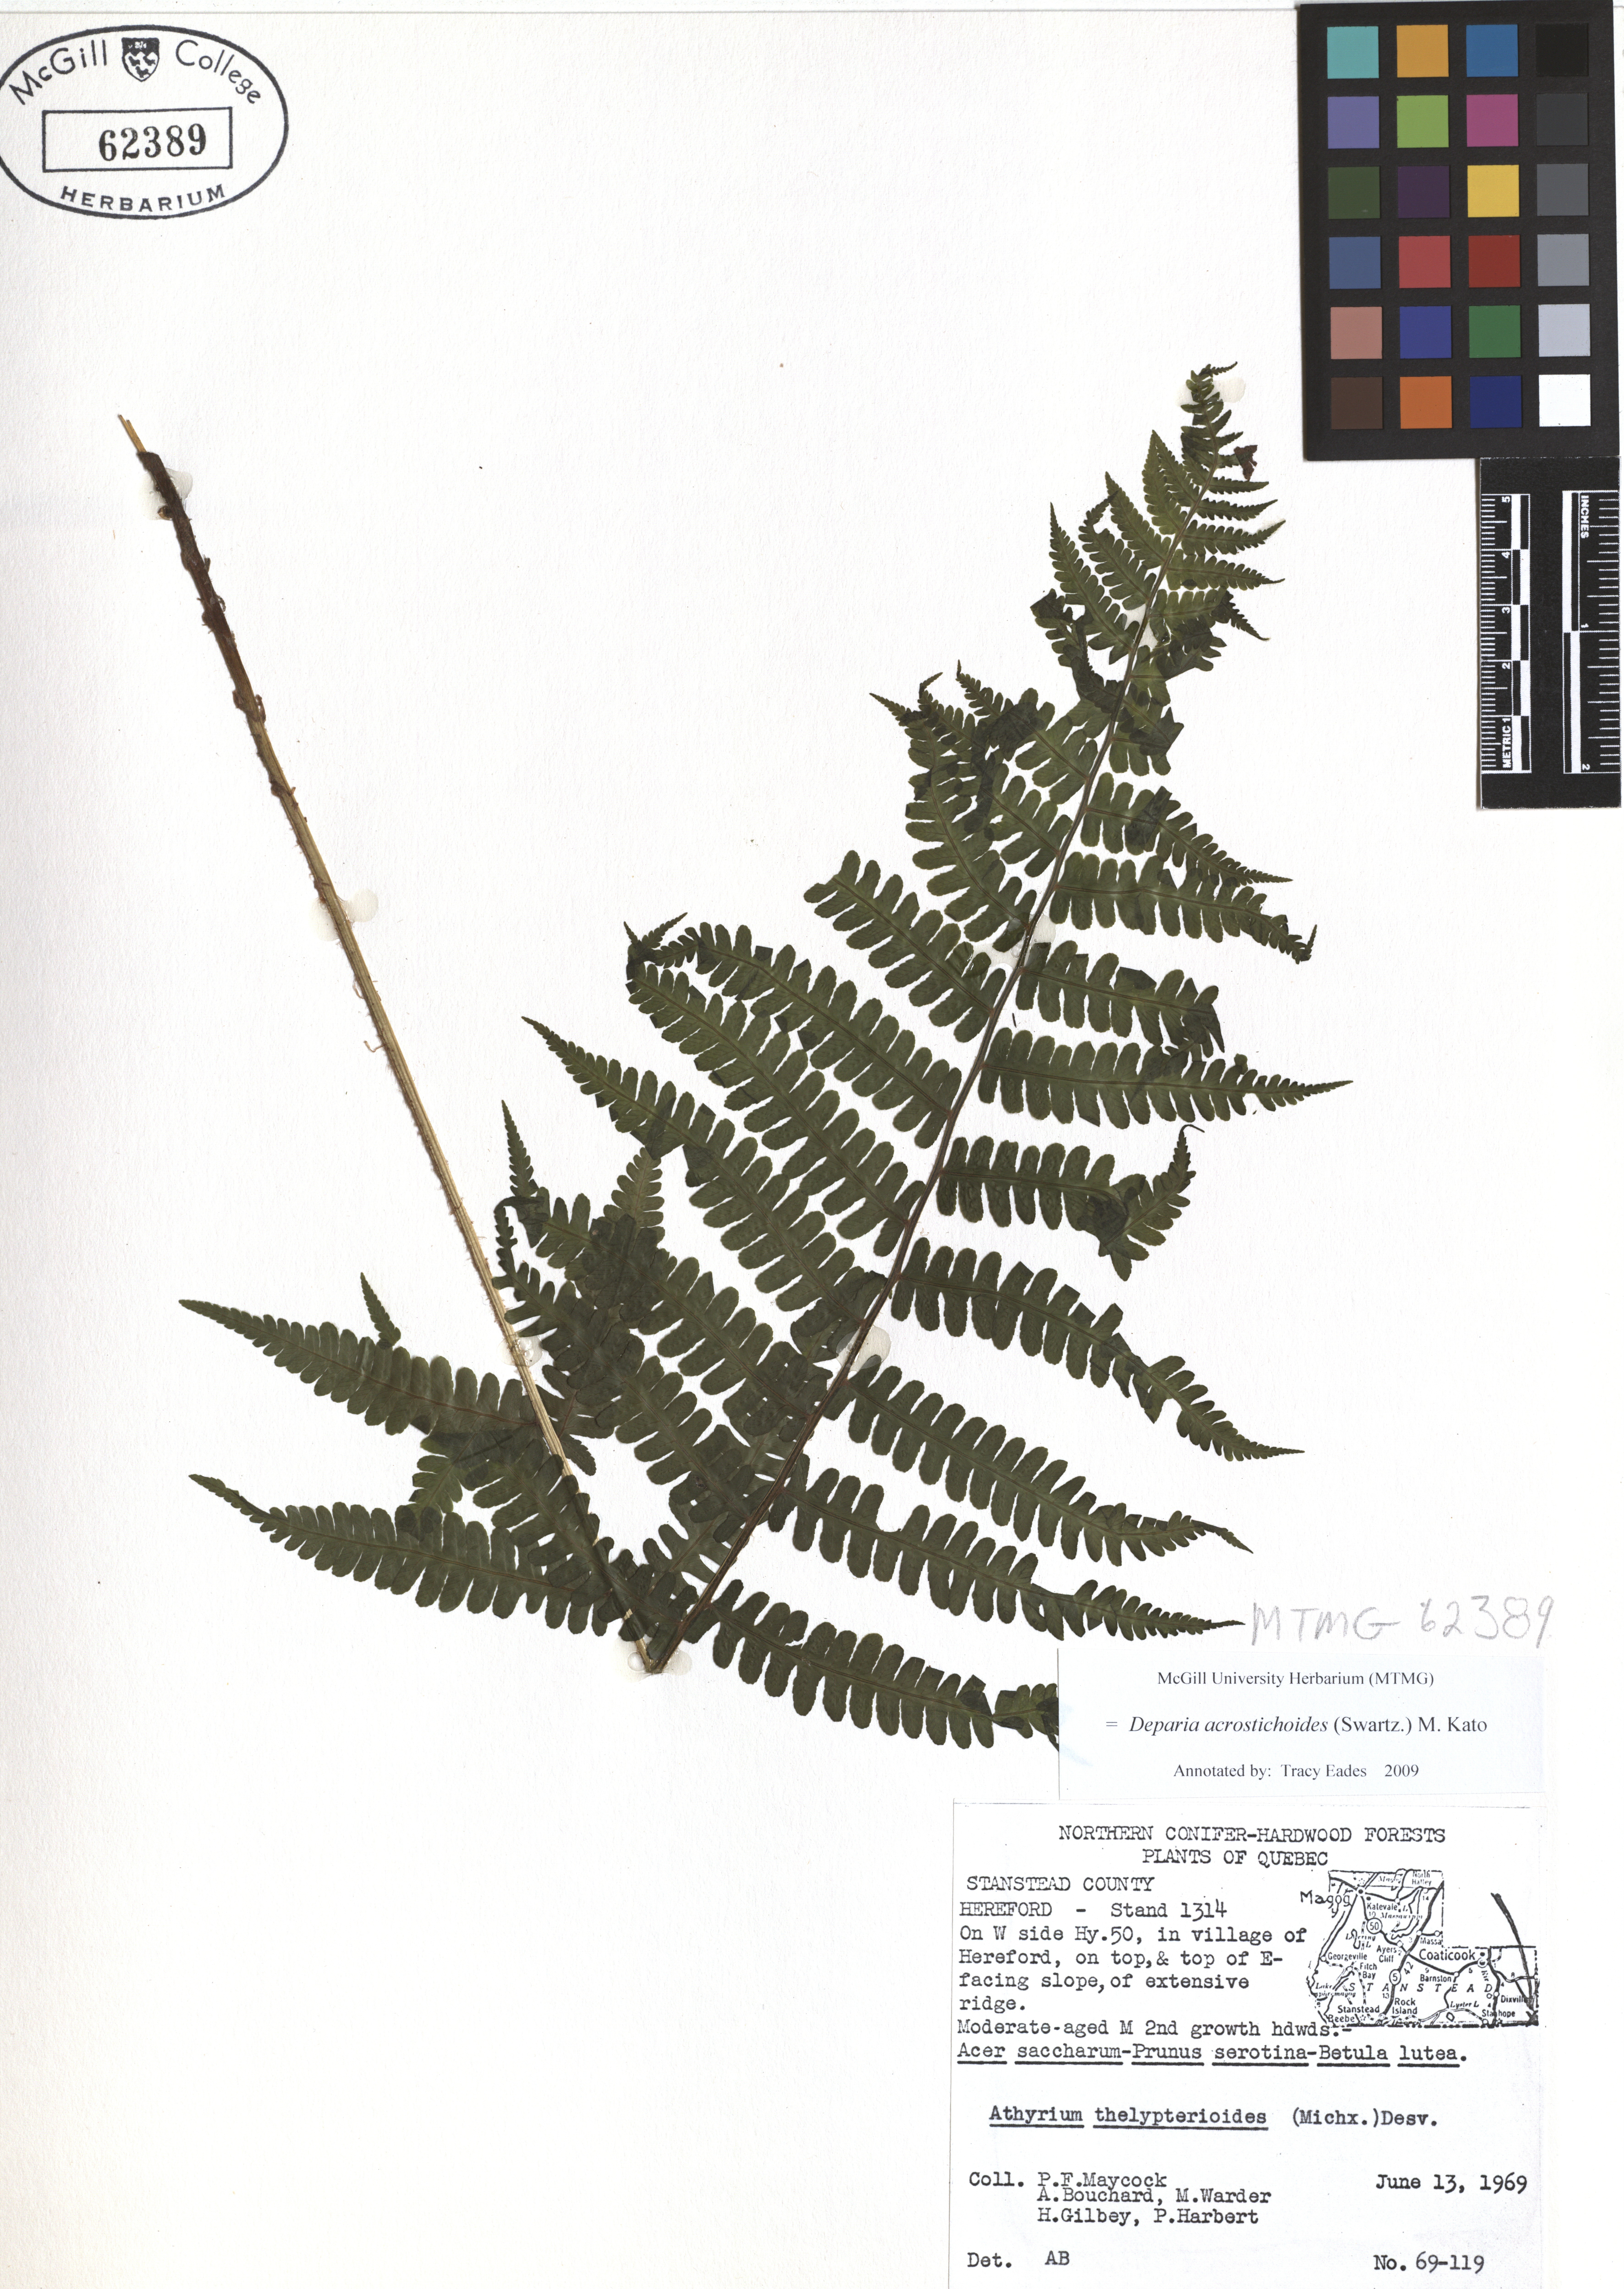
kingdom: Plantae
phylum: Tracheophyta
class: Polypodiopsida
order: Polypodiales
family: Athyriaceae
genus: Deparia
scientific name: Deparia acrostichoides
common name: Silver false spleenwort
